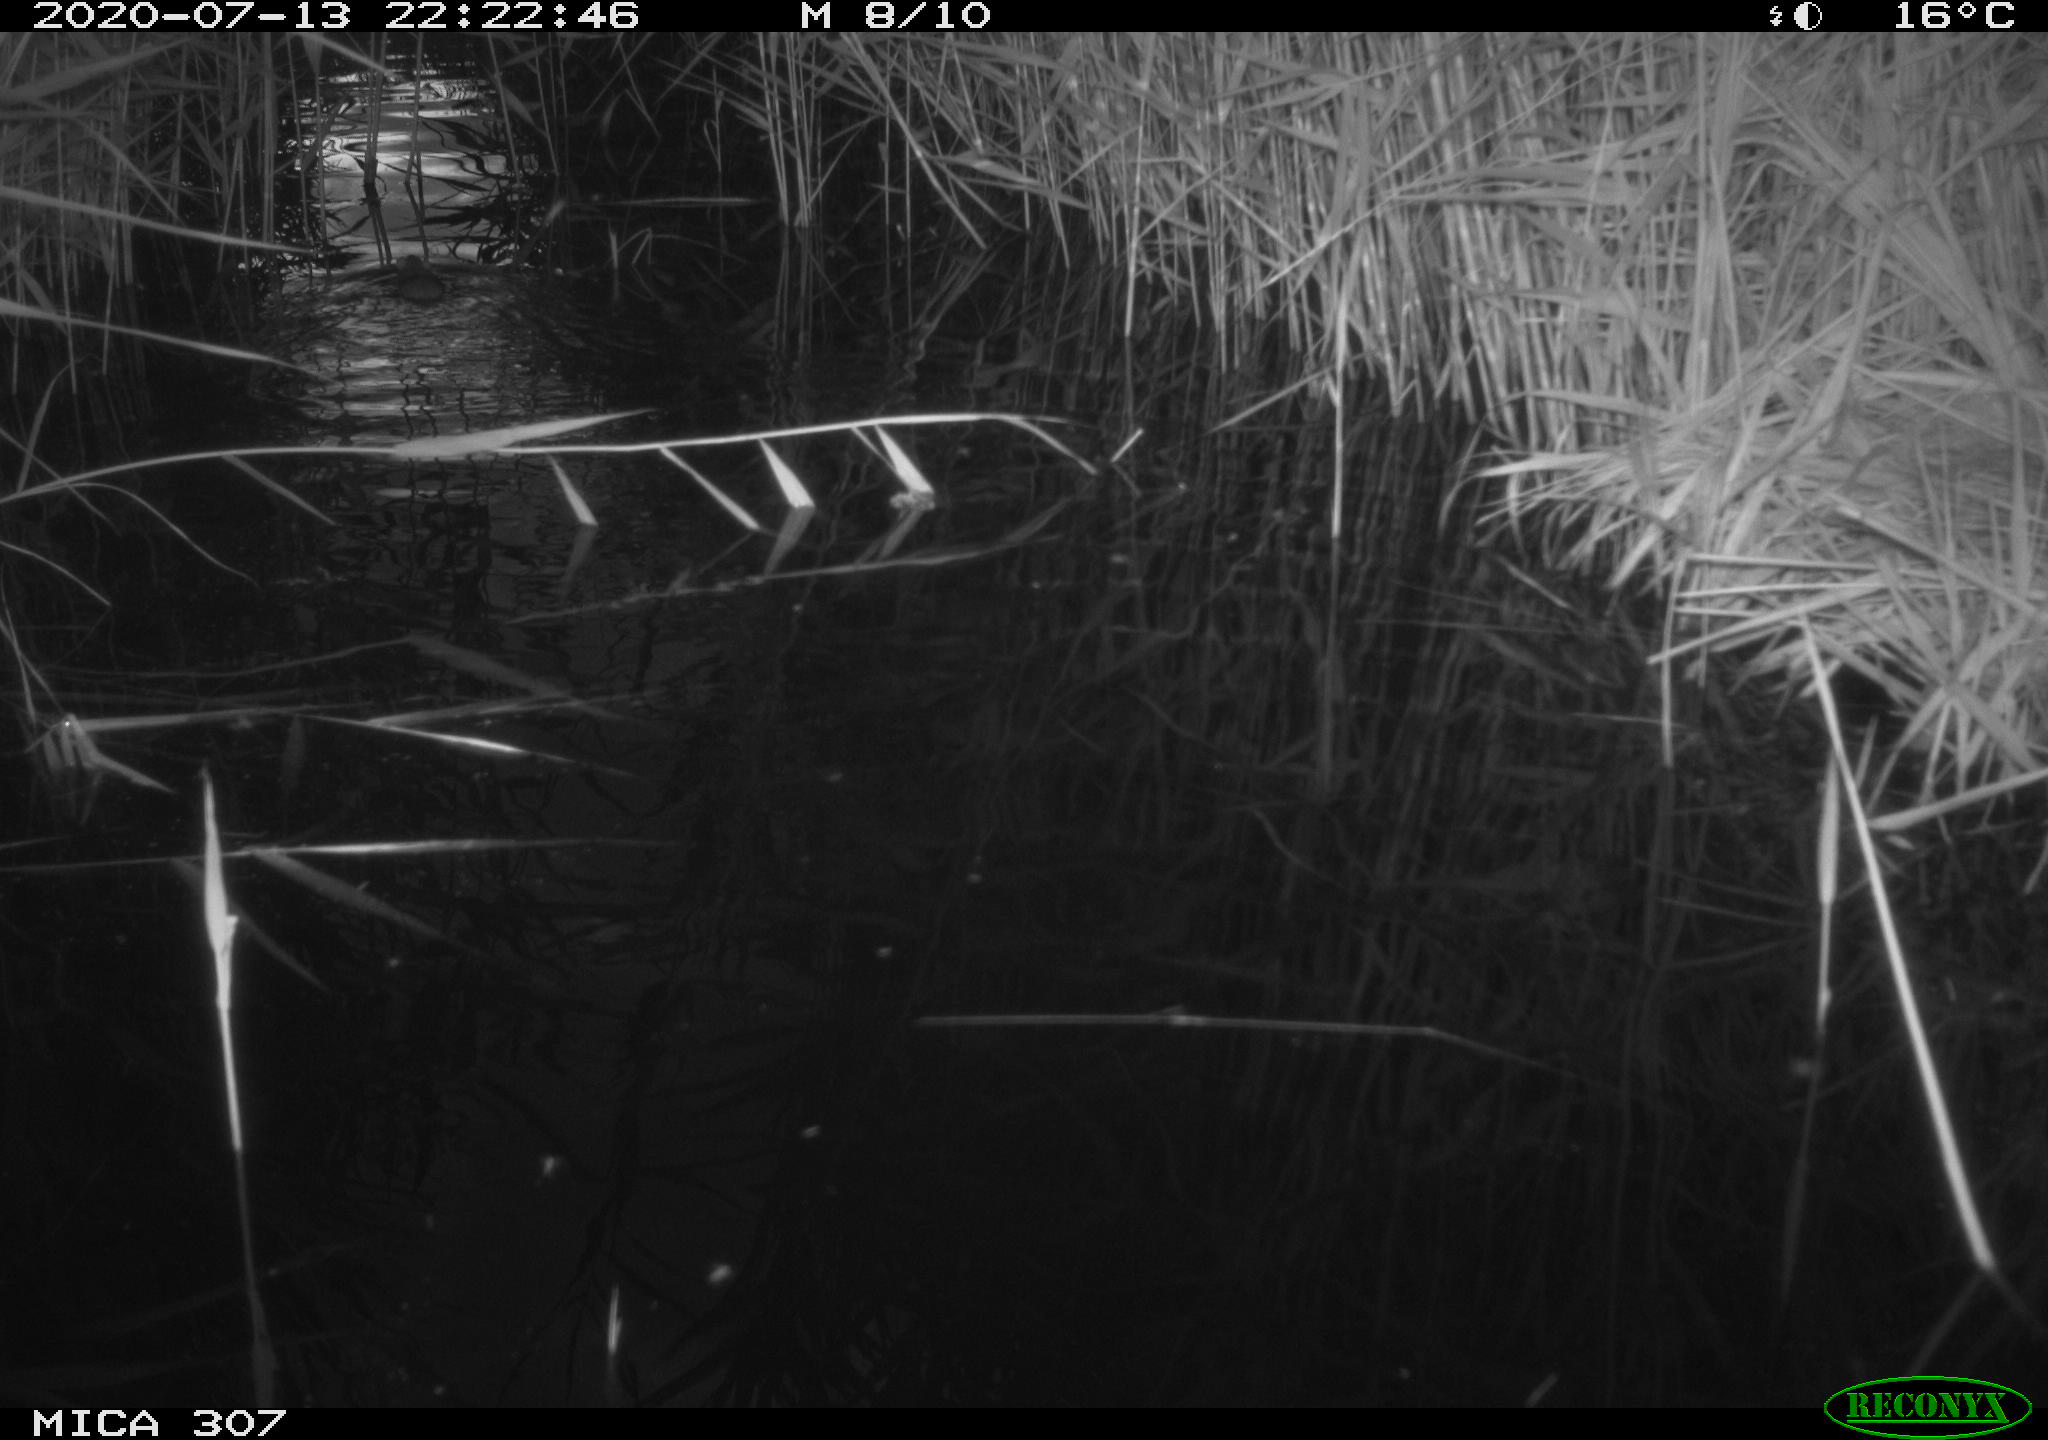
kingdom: Animalia
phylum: Chordata
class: Mammalia
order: Rodentia
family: Muridae
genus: Rattus
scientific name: Rattus norvegicus
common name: Brown rat
